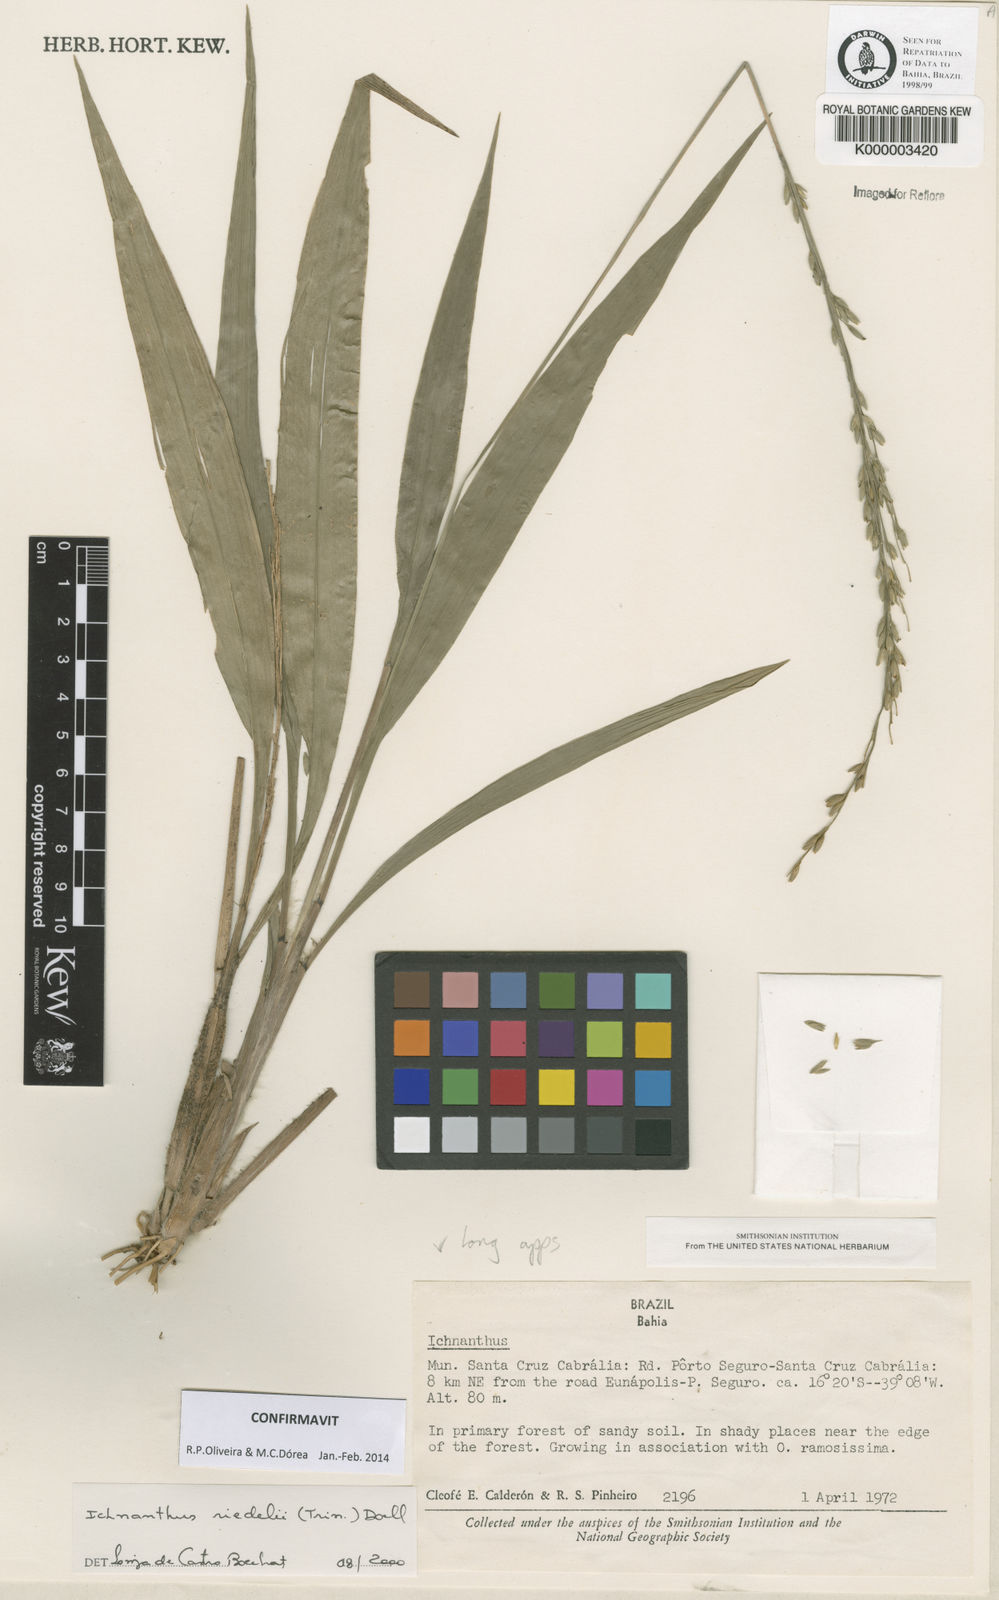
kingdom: Plantae
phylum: Tracheophyta
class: Liliopsida
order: Poales
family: Poaceae
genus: Ichnanthus
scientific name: Ichnanthus
